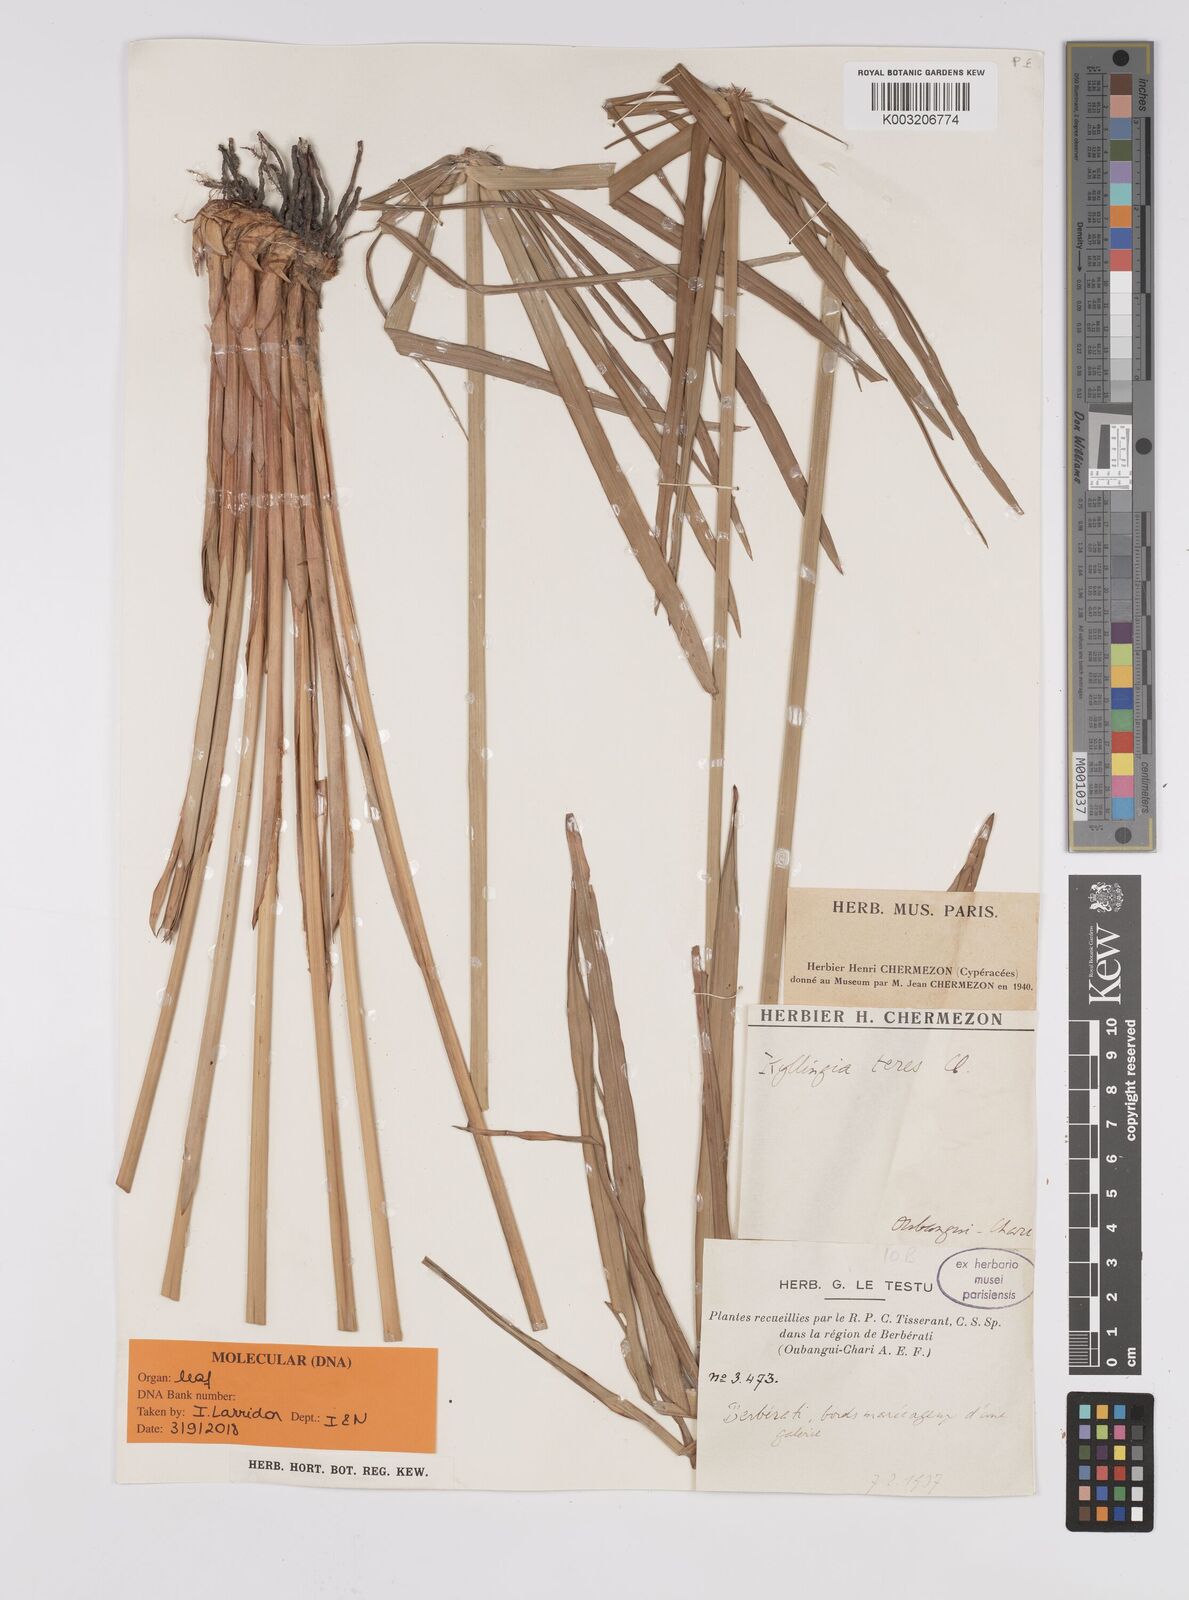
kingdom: Plantae
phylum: Tracheophyta
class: Liliopsida
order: Poales
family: Cyperaceae
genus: Cyperus
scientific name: Cyperus
